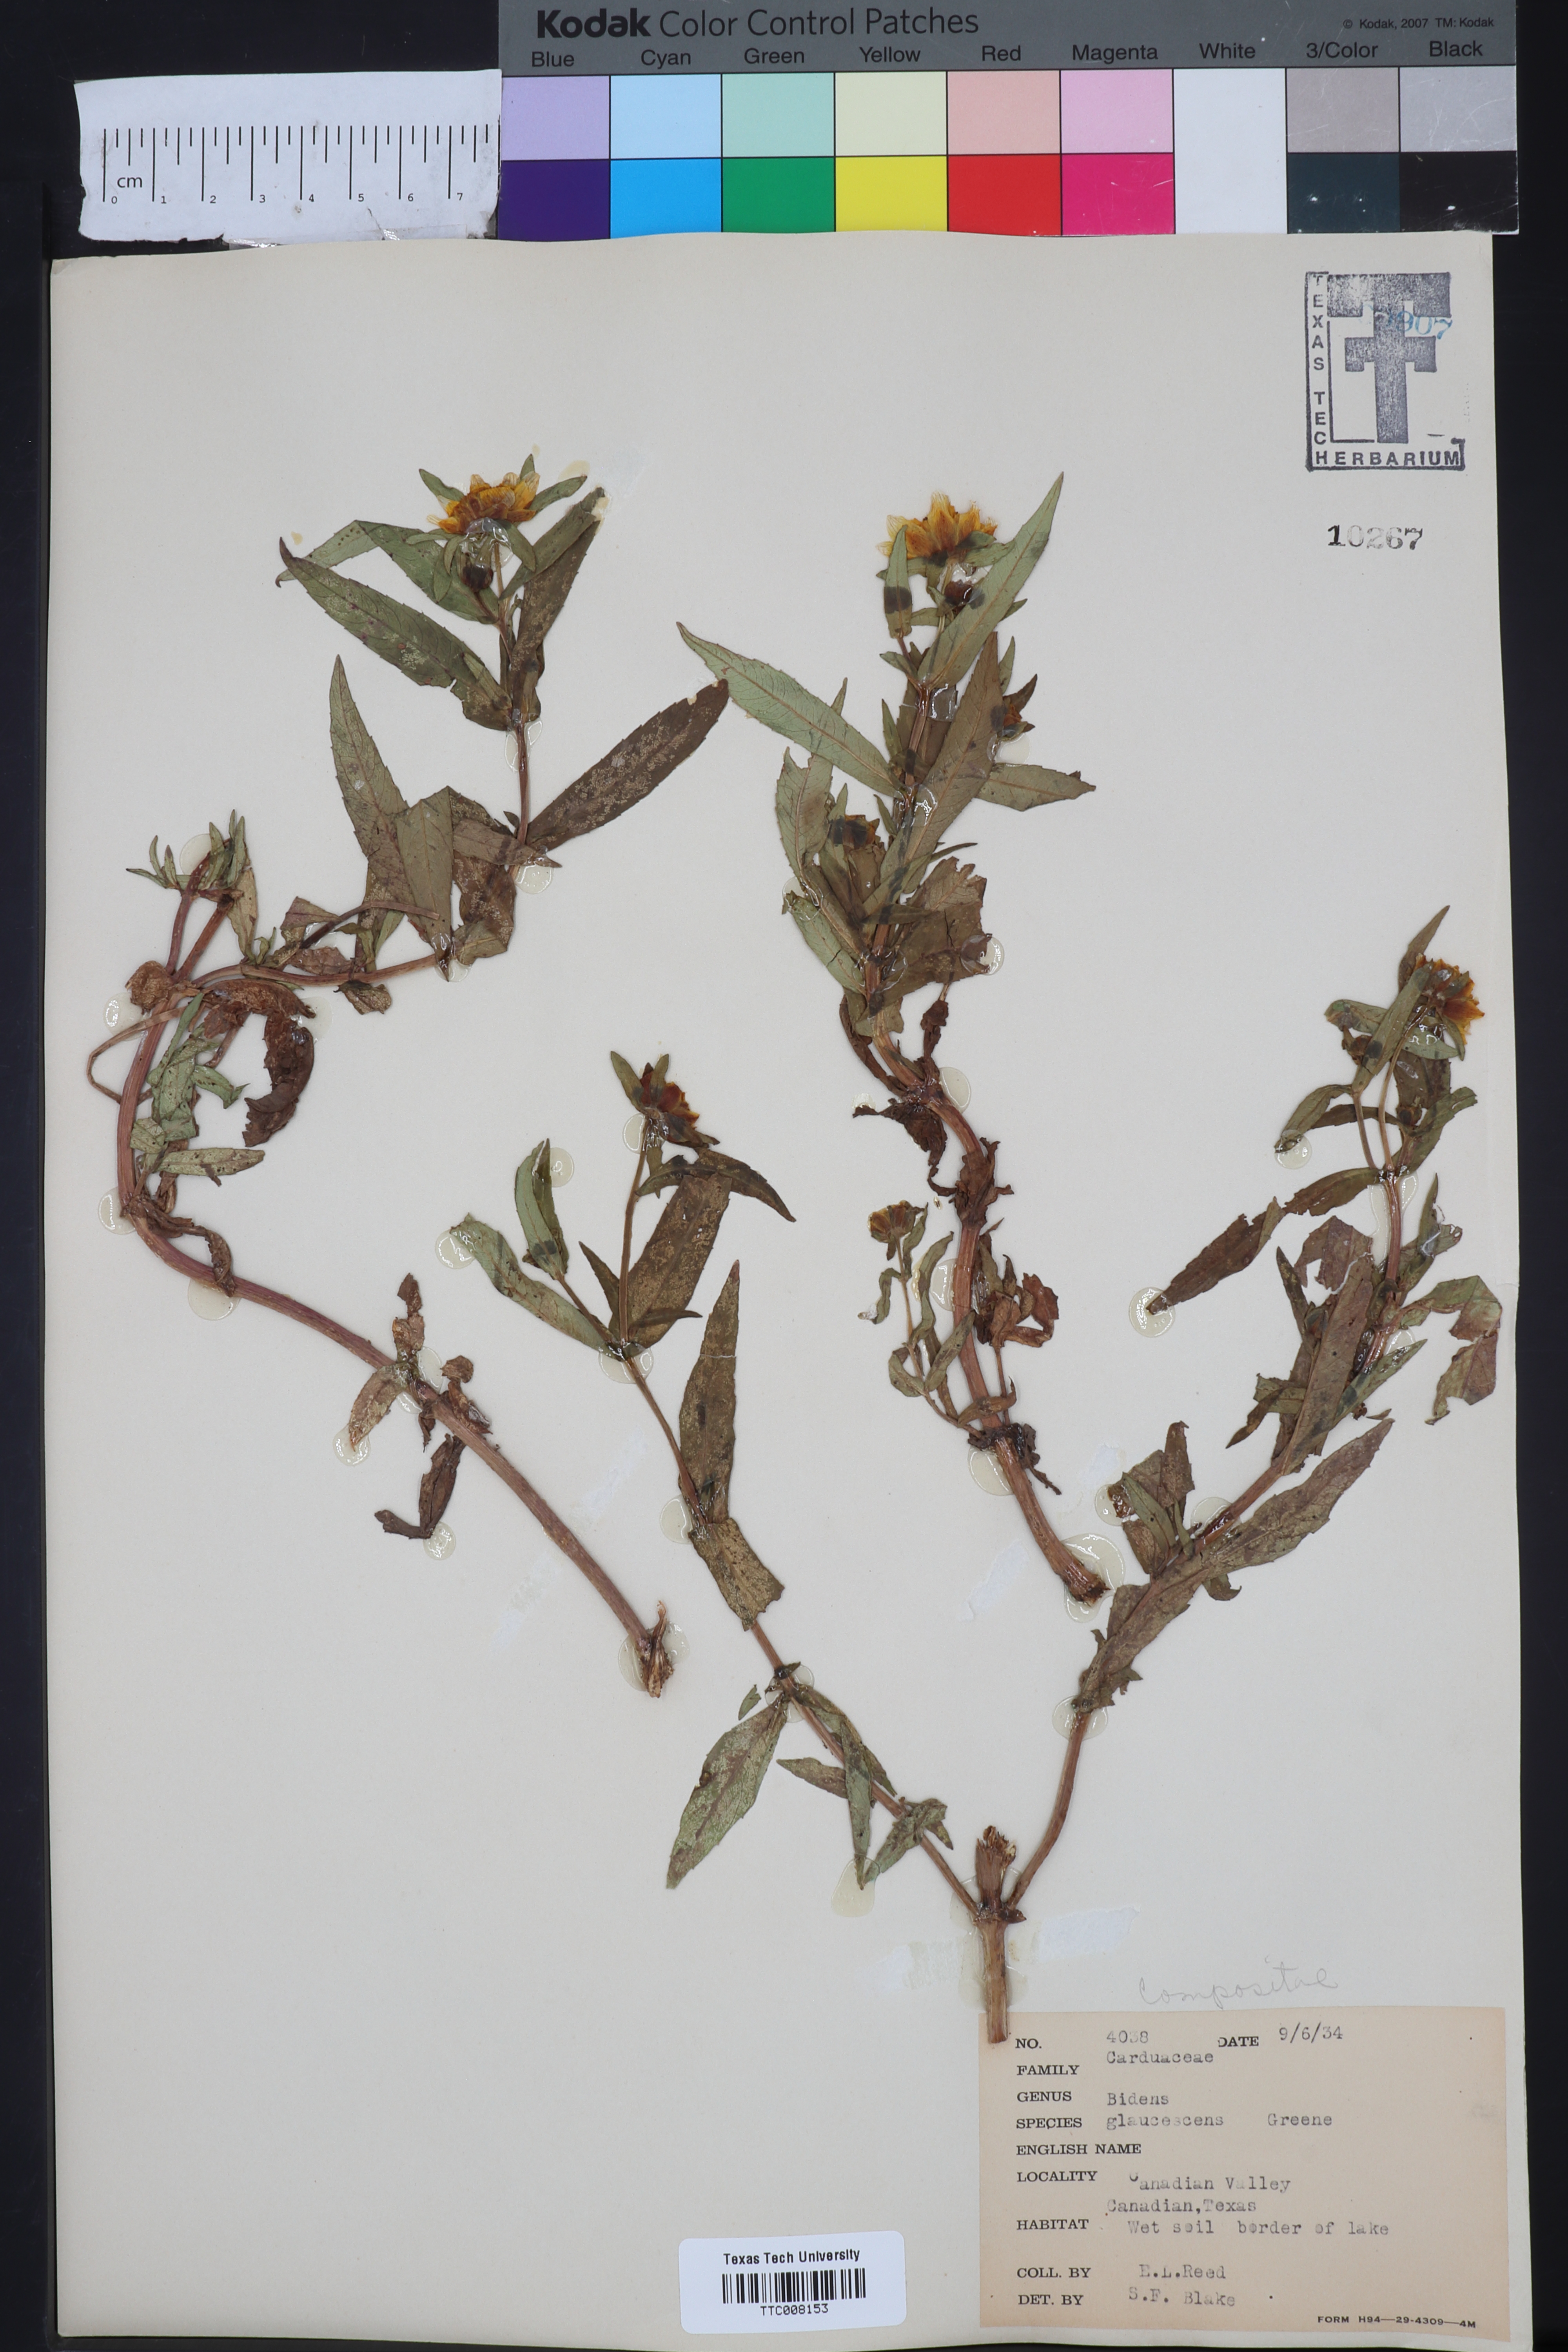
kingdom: Plantae
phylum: Tracheophyta
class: Magnoliopsida
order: Asterales
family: Asteraceae
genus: Bidens
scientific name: Bidens cernua
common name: Nodding bur-marigold
